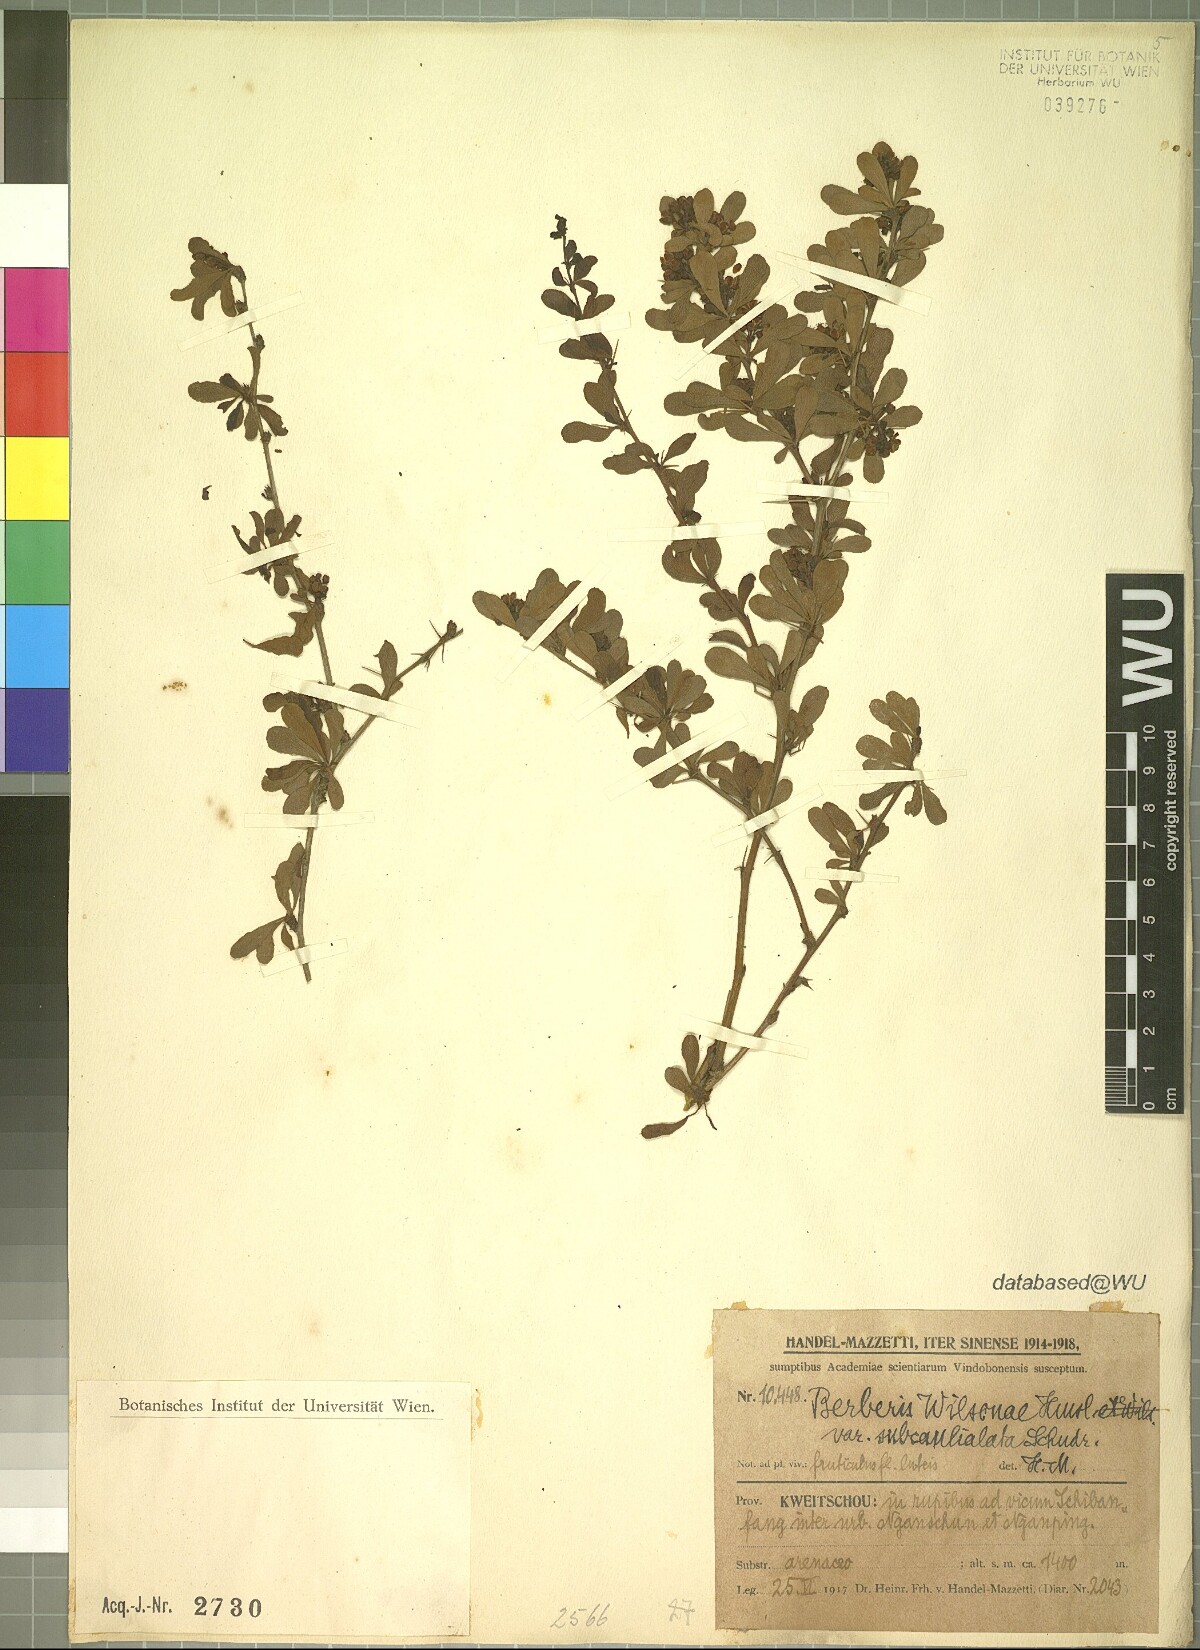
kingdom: Plantae
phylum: Tracheophyta
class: Magnoliopsida
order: Ranunculales
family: Berberidaceae
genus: Berberis
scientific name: Berberis wilsoniae
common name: Mrs wilson's barberry
